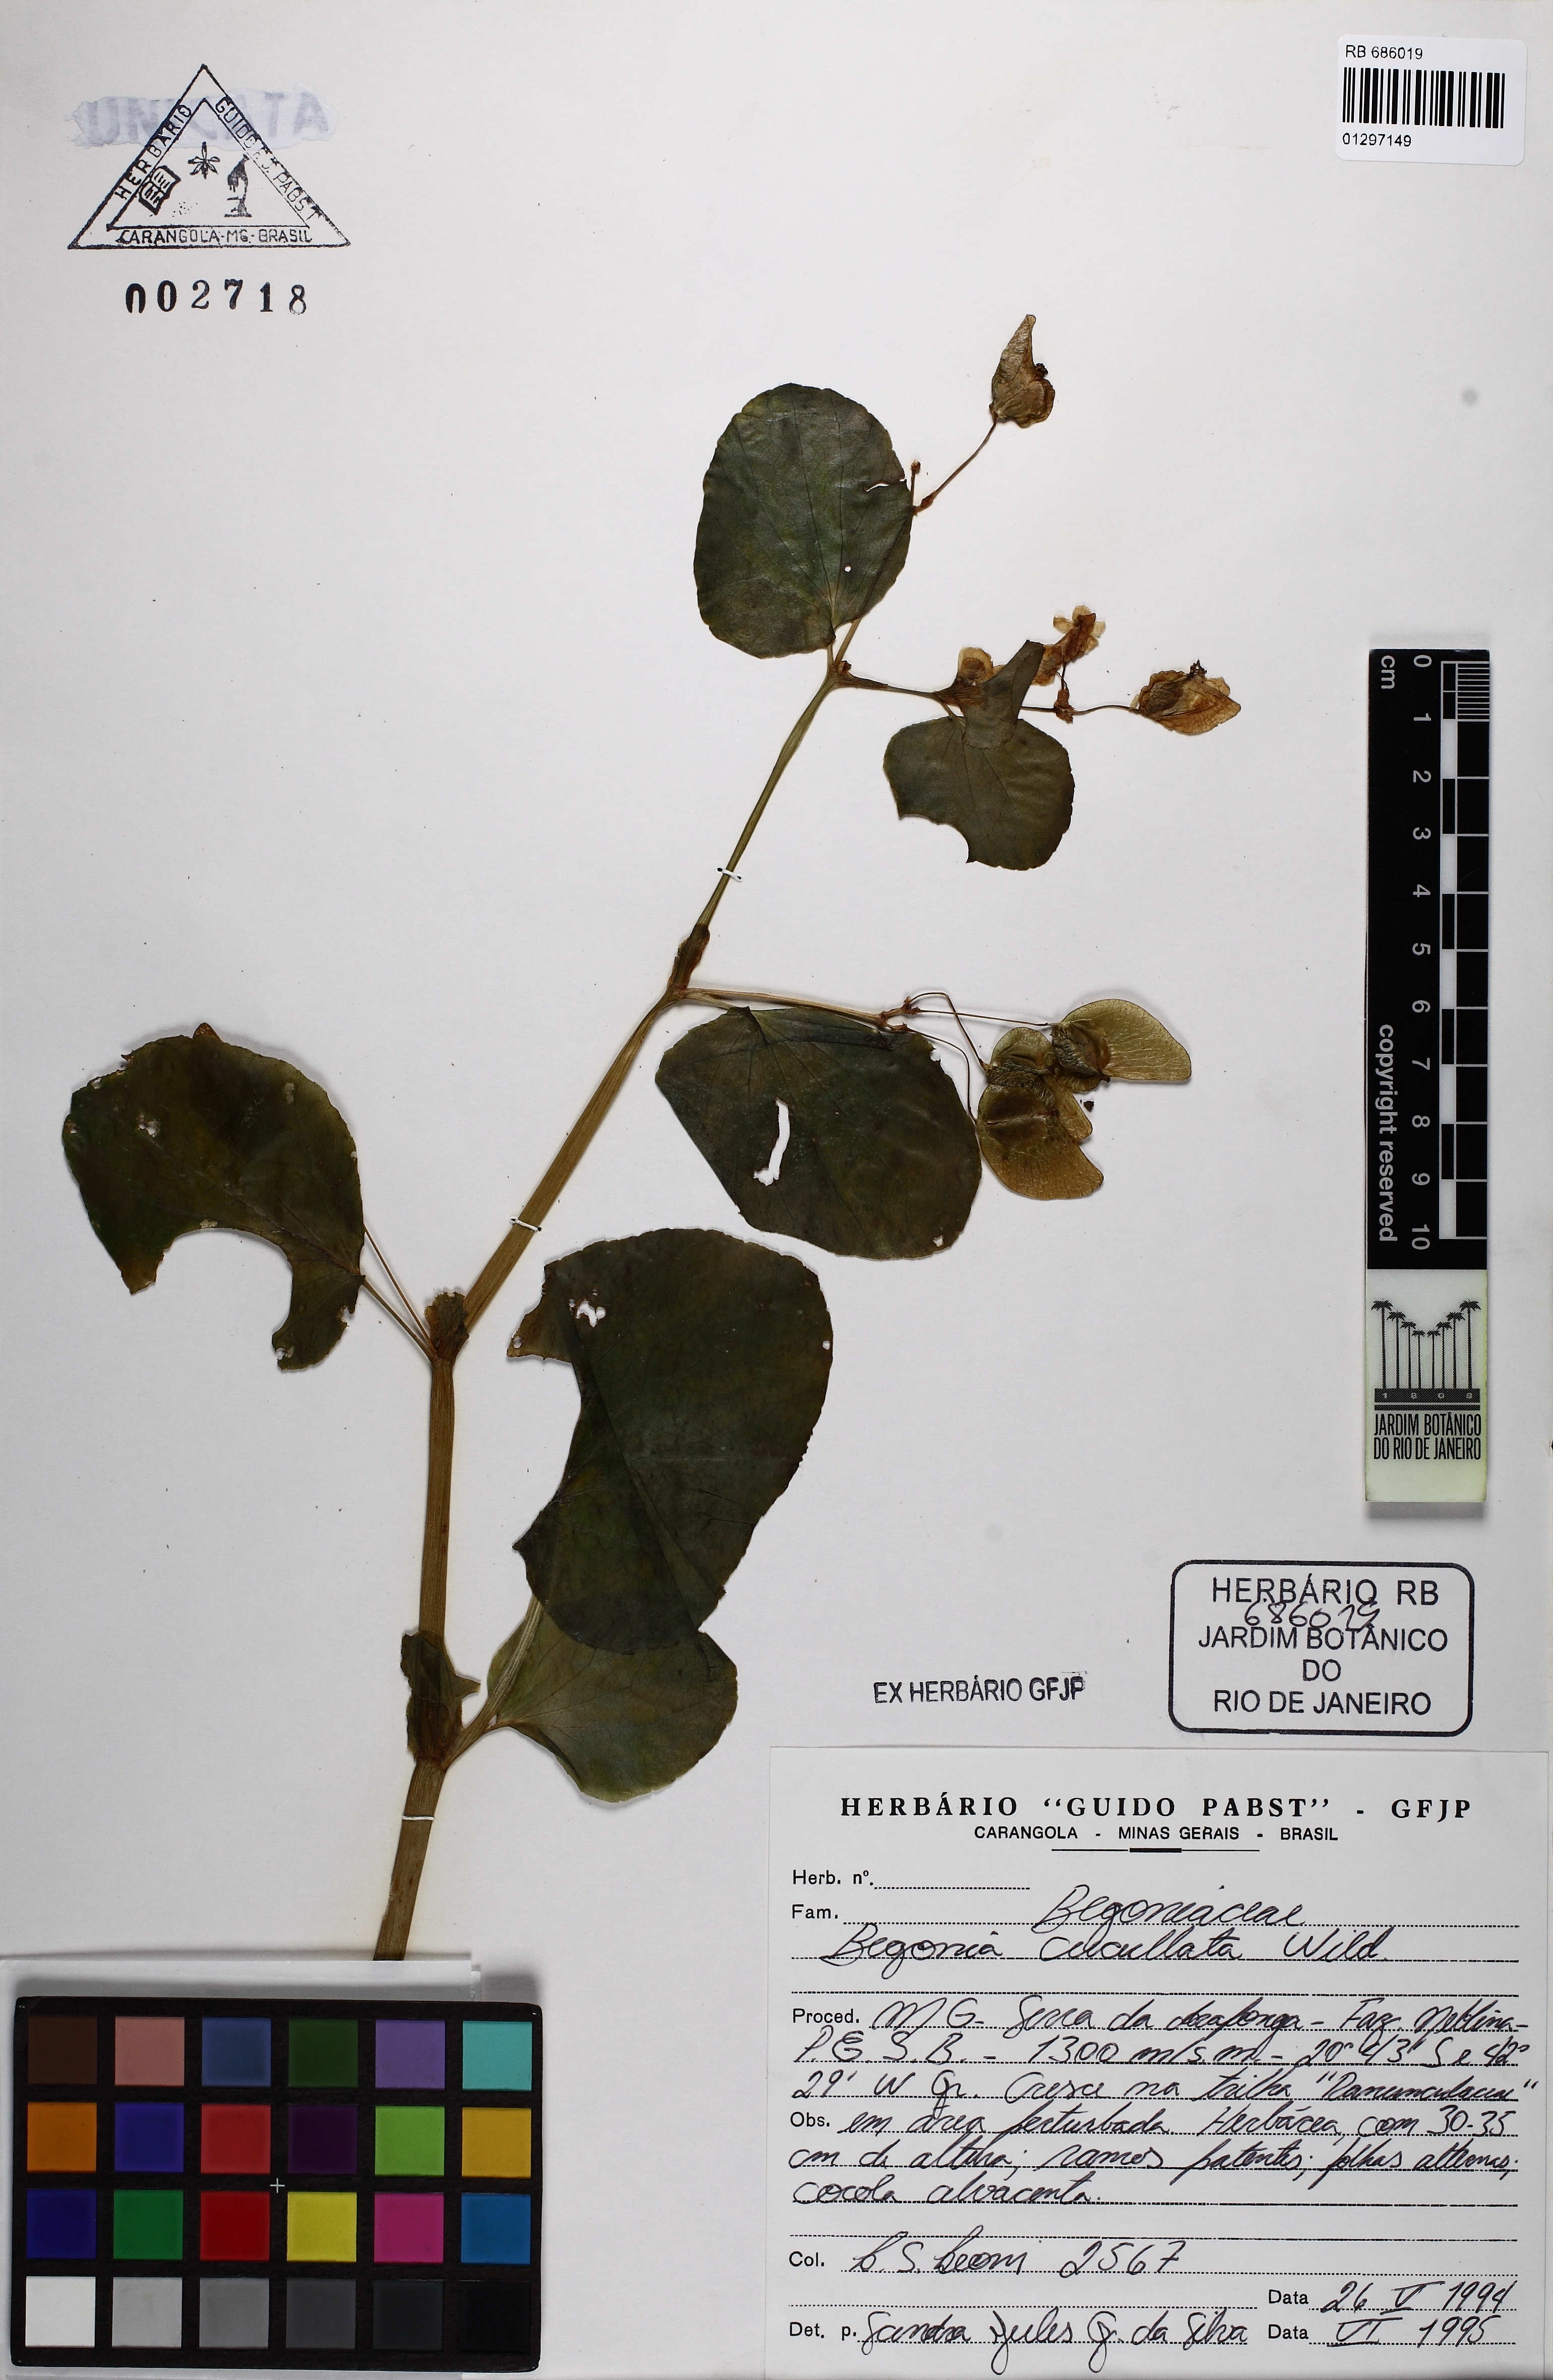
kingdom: Plantae
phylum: Tracheophyta
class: Magnoliopsida
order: Cucurbitales
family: Begoniaceae
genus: Begonia
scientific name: Begonia cucullata
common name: Clubbed begonia
